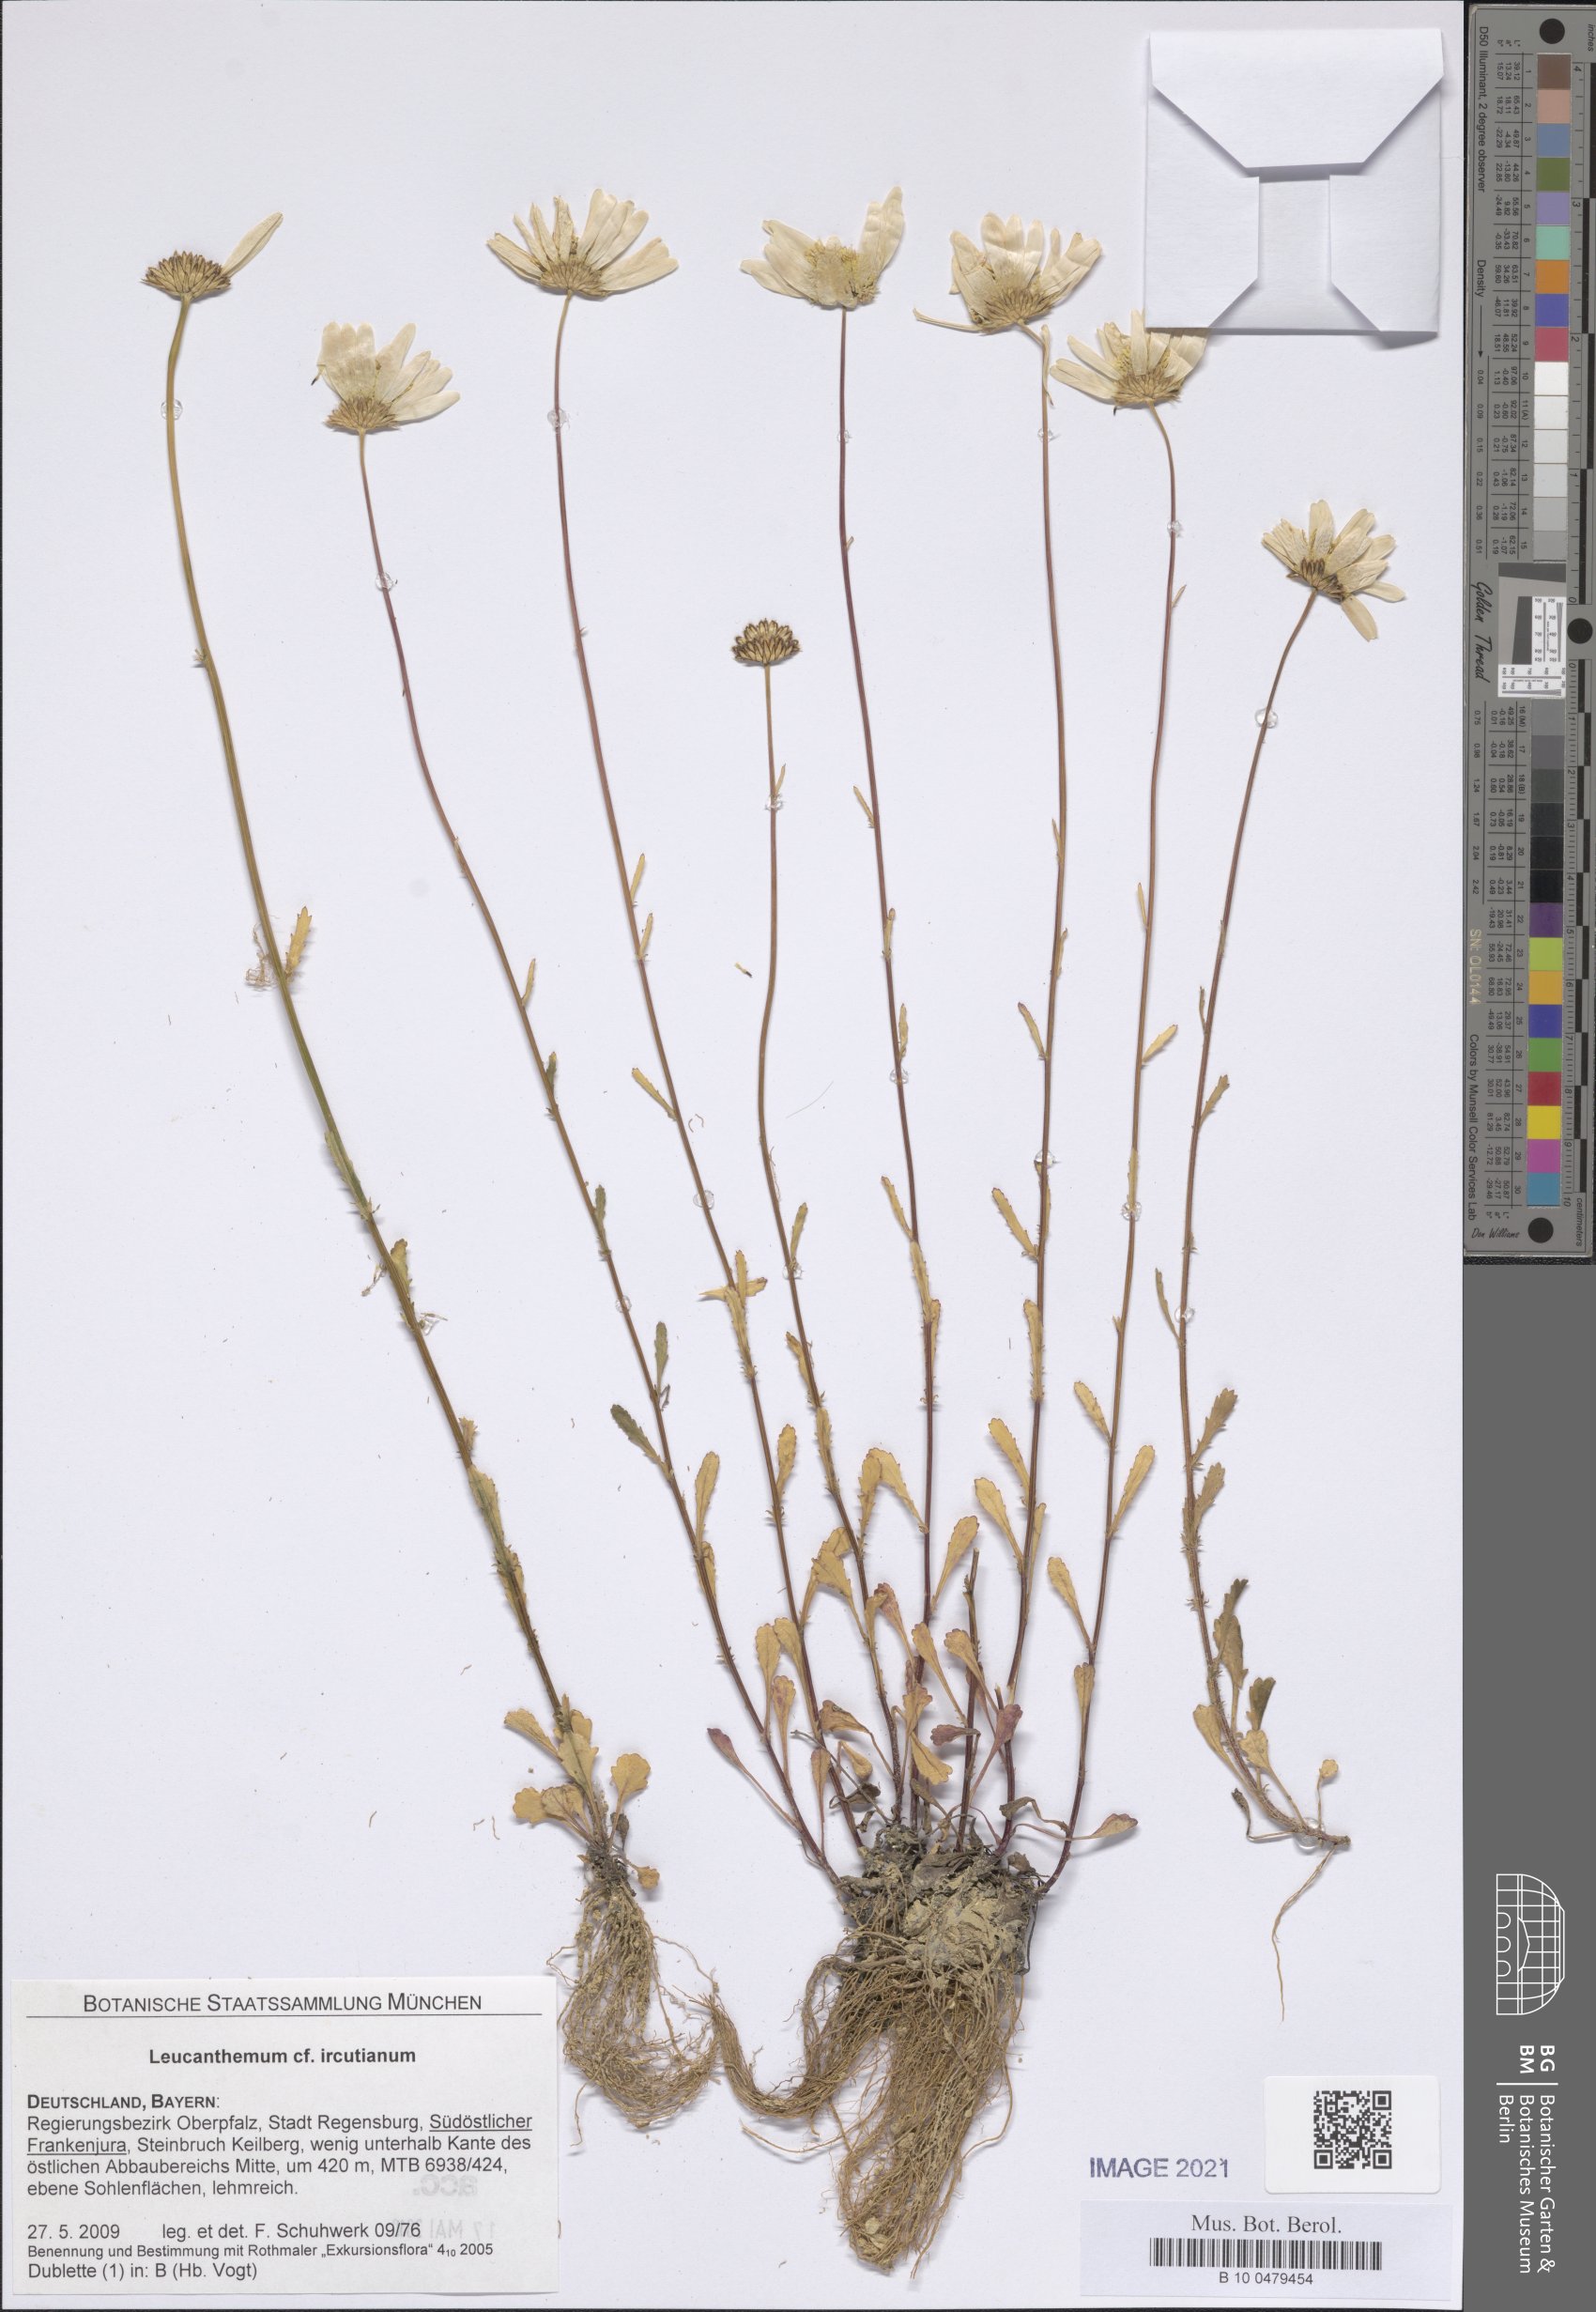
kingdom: Plantae
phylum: Tracheophyta
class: Magnoliopsida
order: Asterales
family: Asteraceae
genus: Leucanthemum
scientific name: Leucanthemum ircutianum
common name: Daisy
